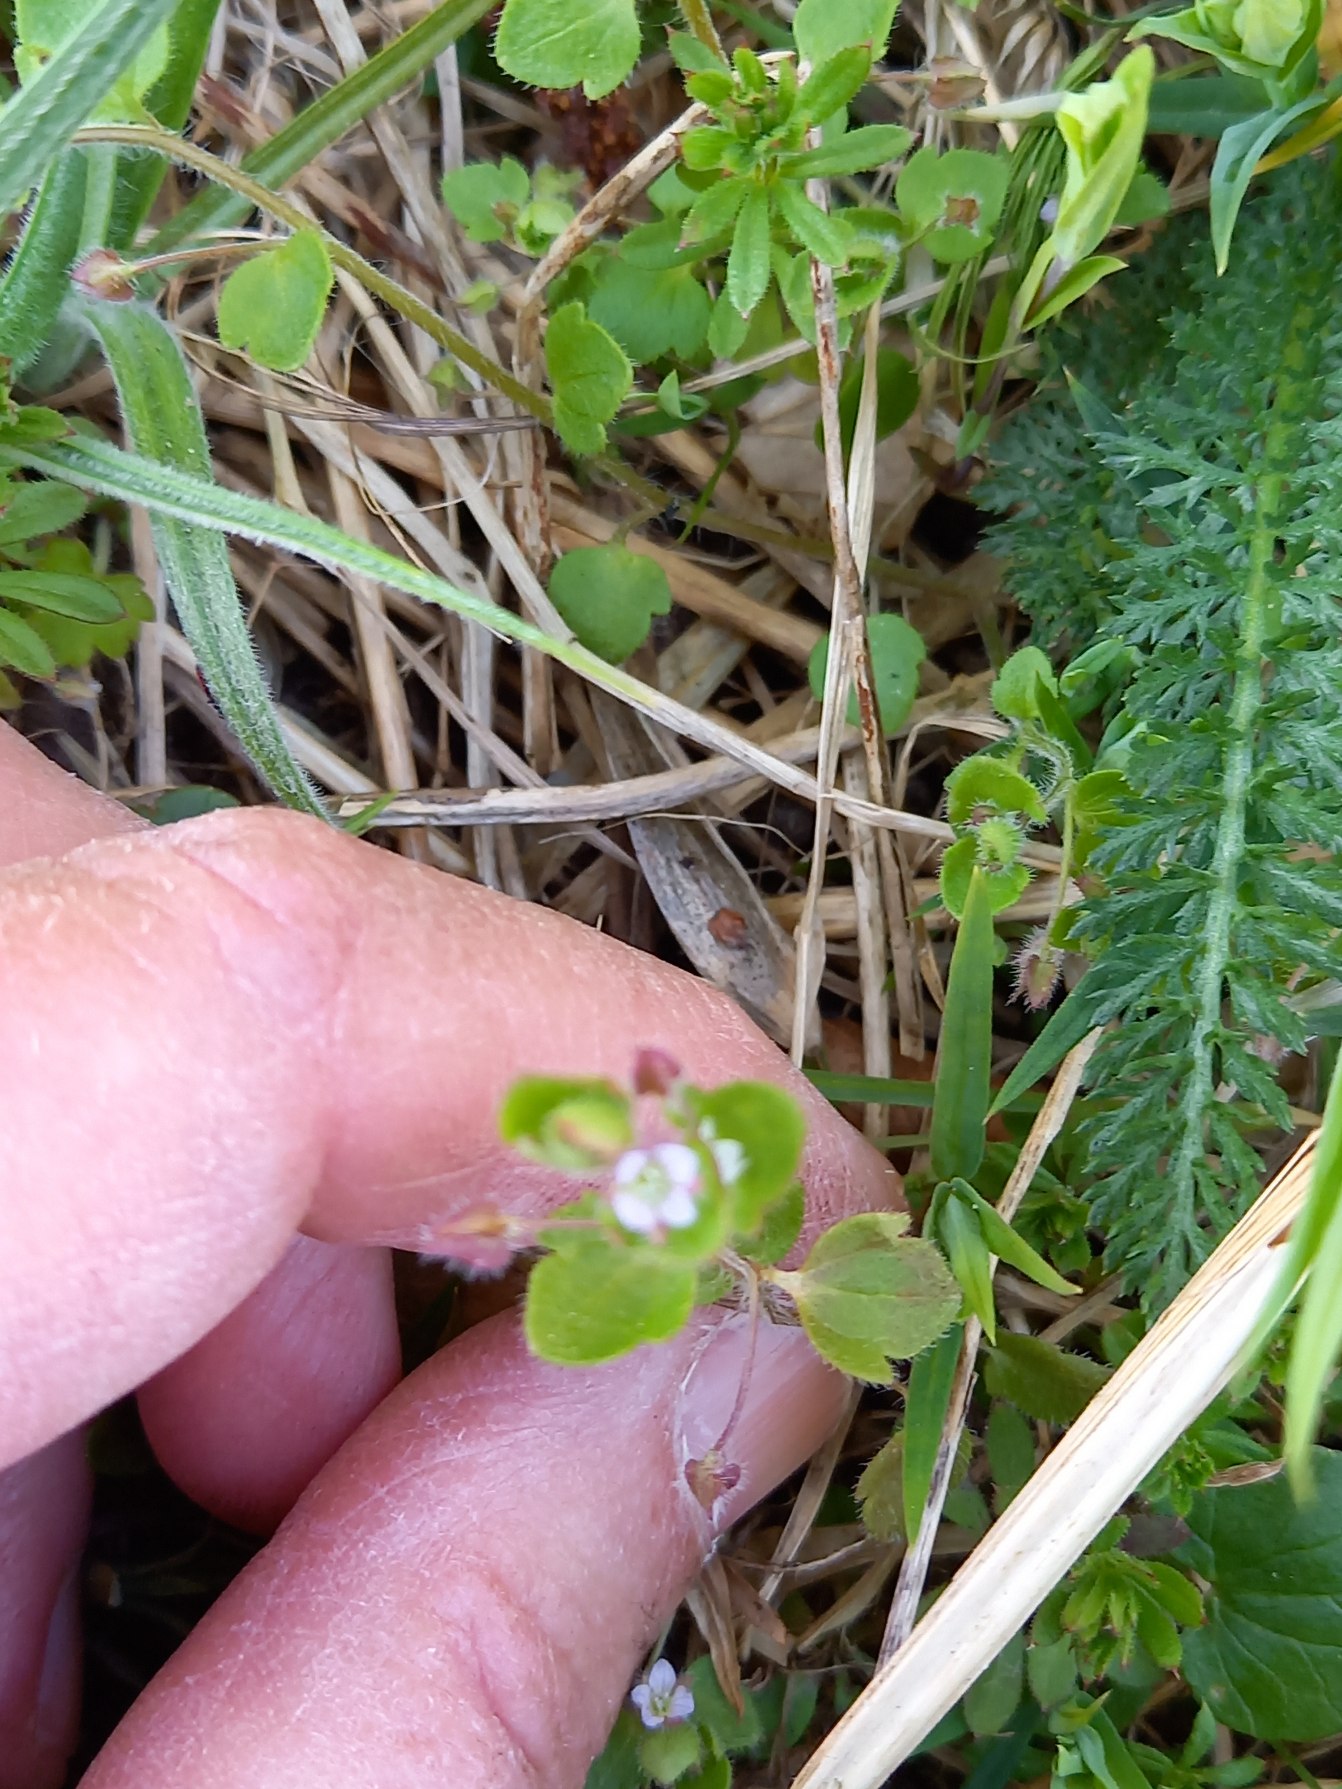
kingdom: Plantae
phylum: Tracheophyta
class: Magnoliopsida
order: Lamiales
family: Plantaginaceae
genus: Veronica
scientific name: Veronica hederifolia
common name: Vedbend-ærenpris
